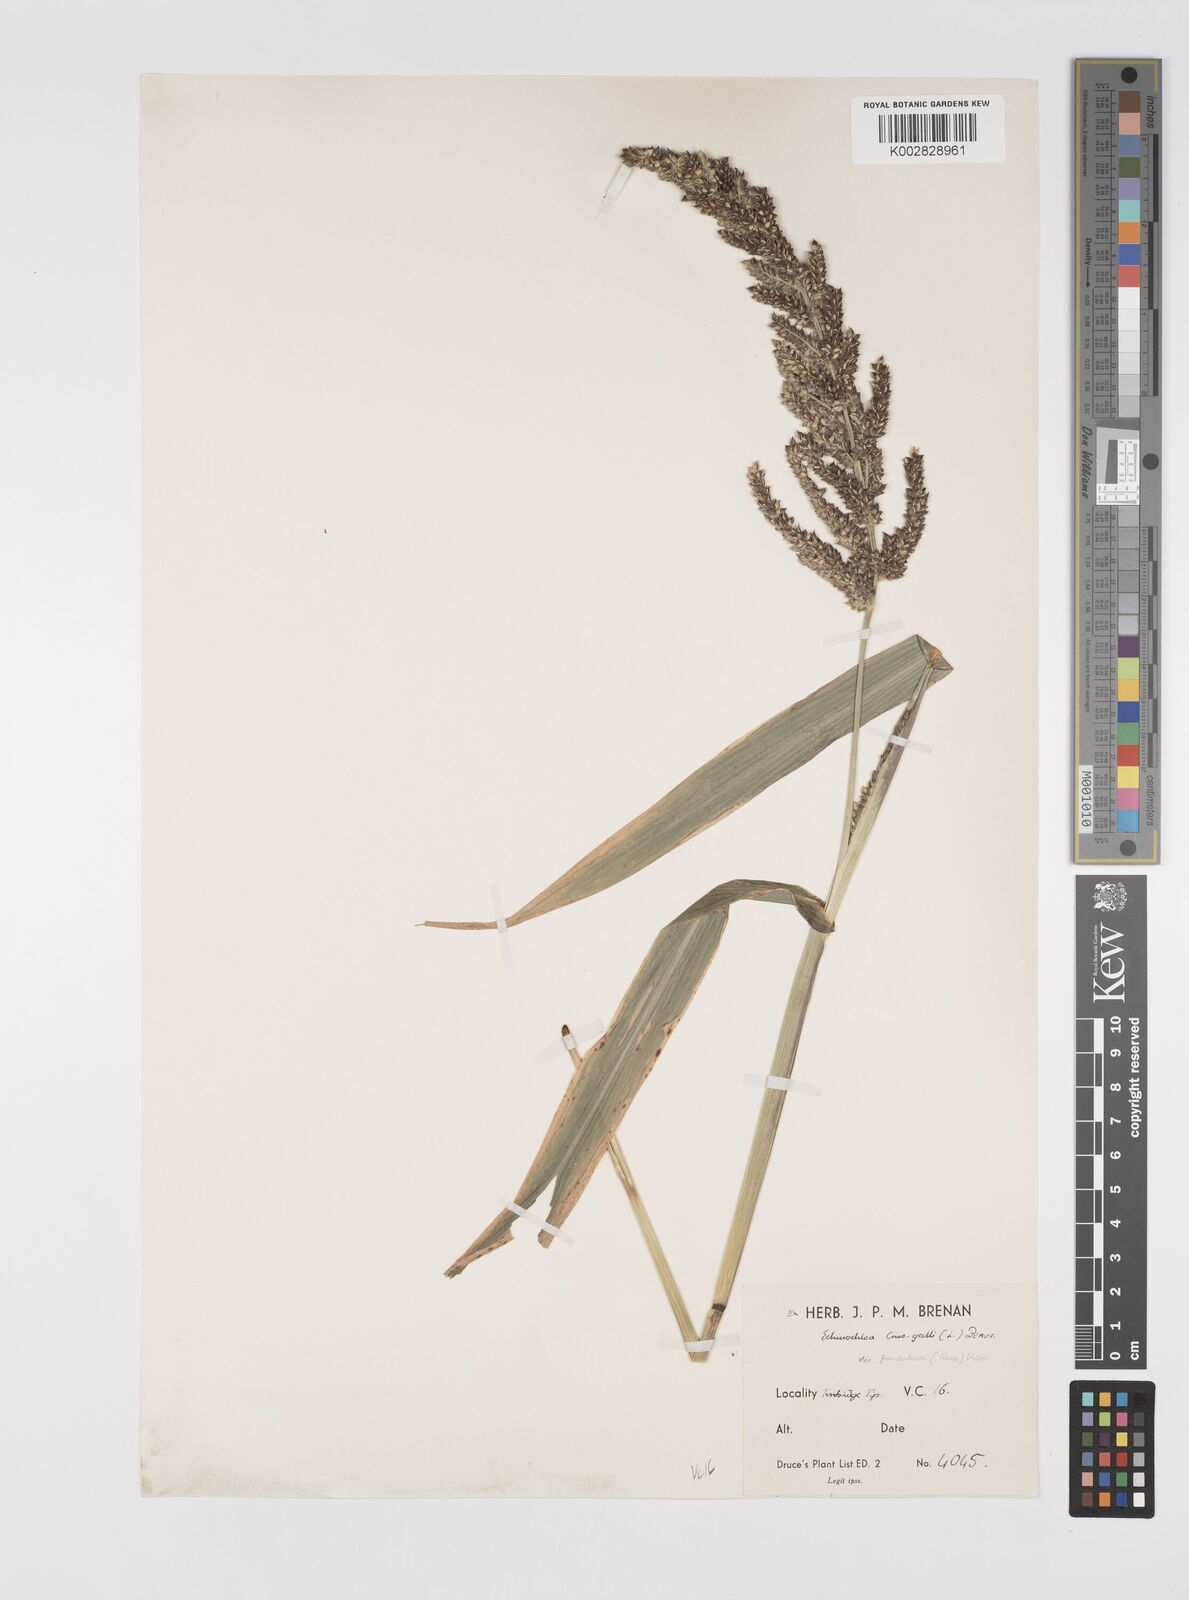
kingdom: Plantae
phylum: Tracheophyta
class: Liliopsida
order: Poales
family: Poaceae
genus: Echinochloa
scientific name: Echinochloa crus-galli
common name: Cockspur
